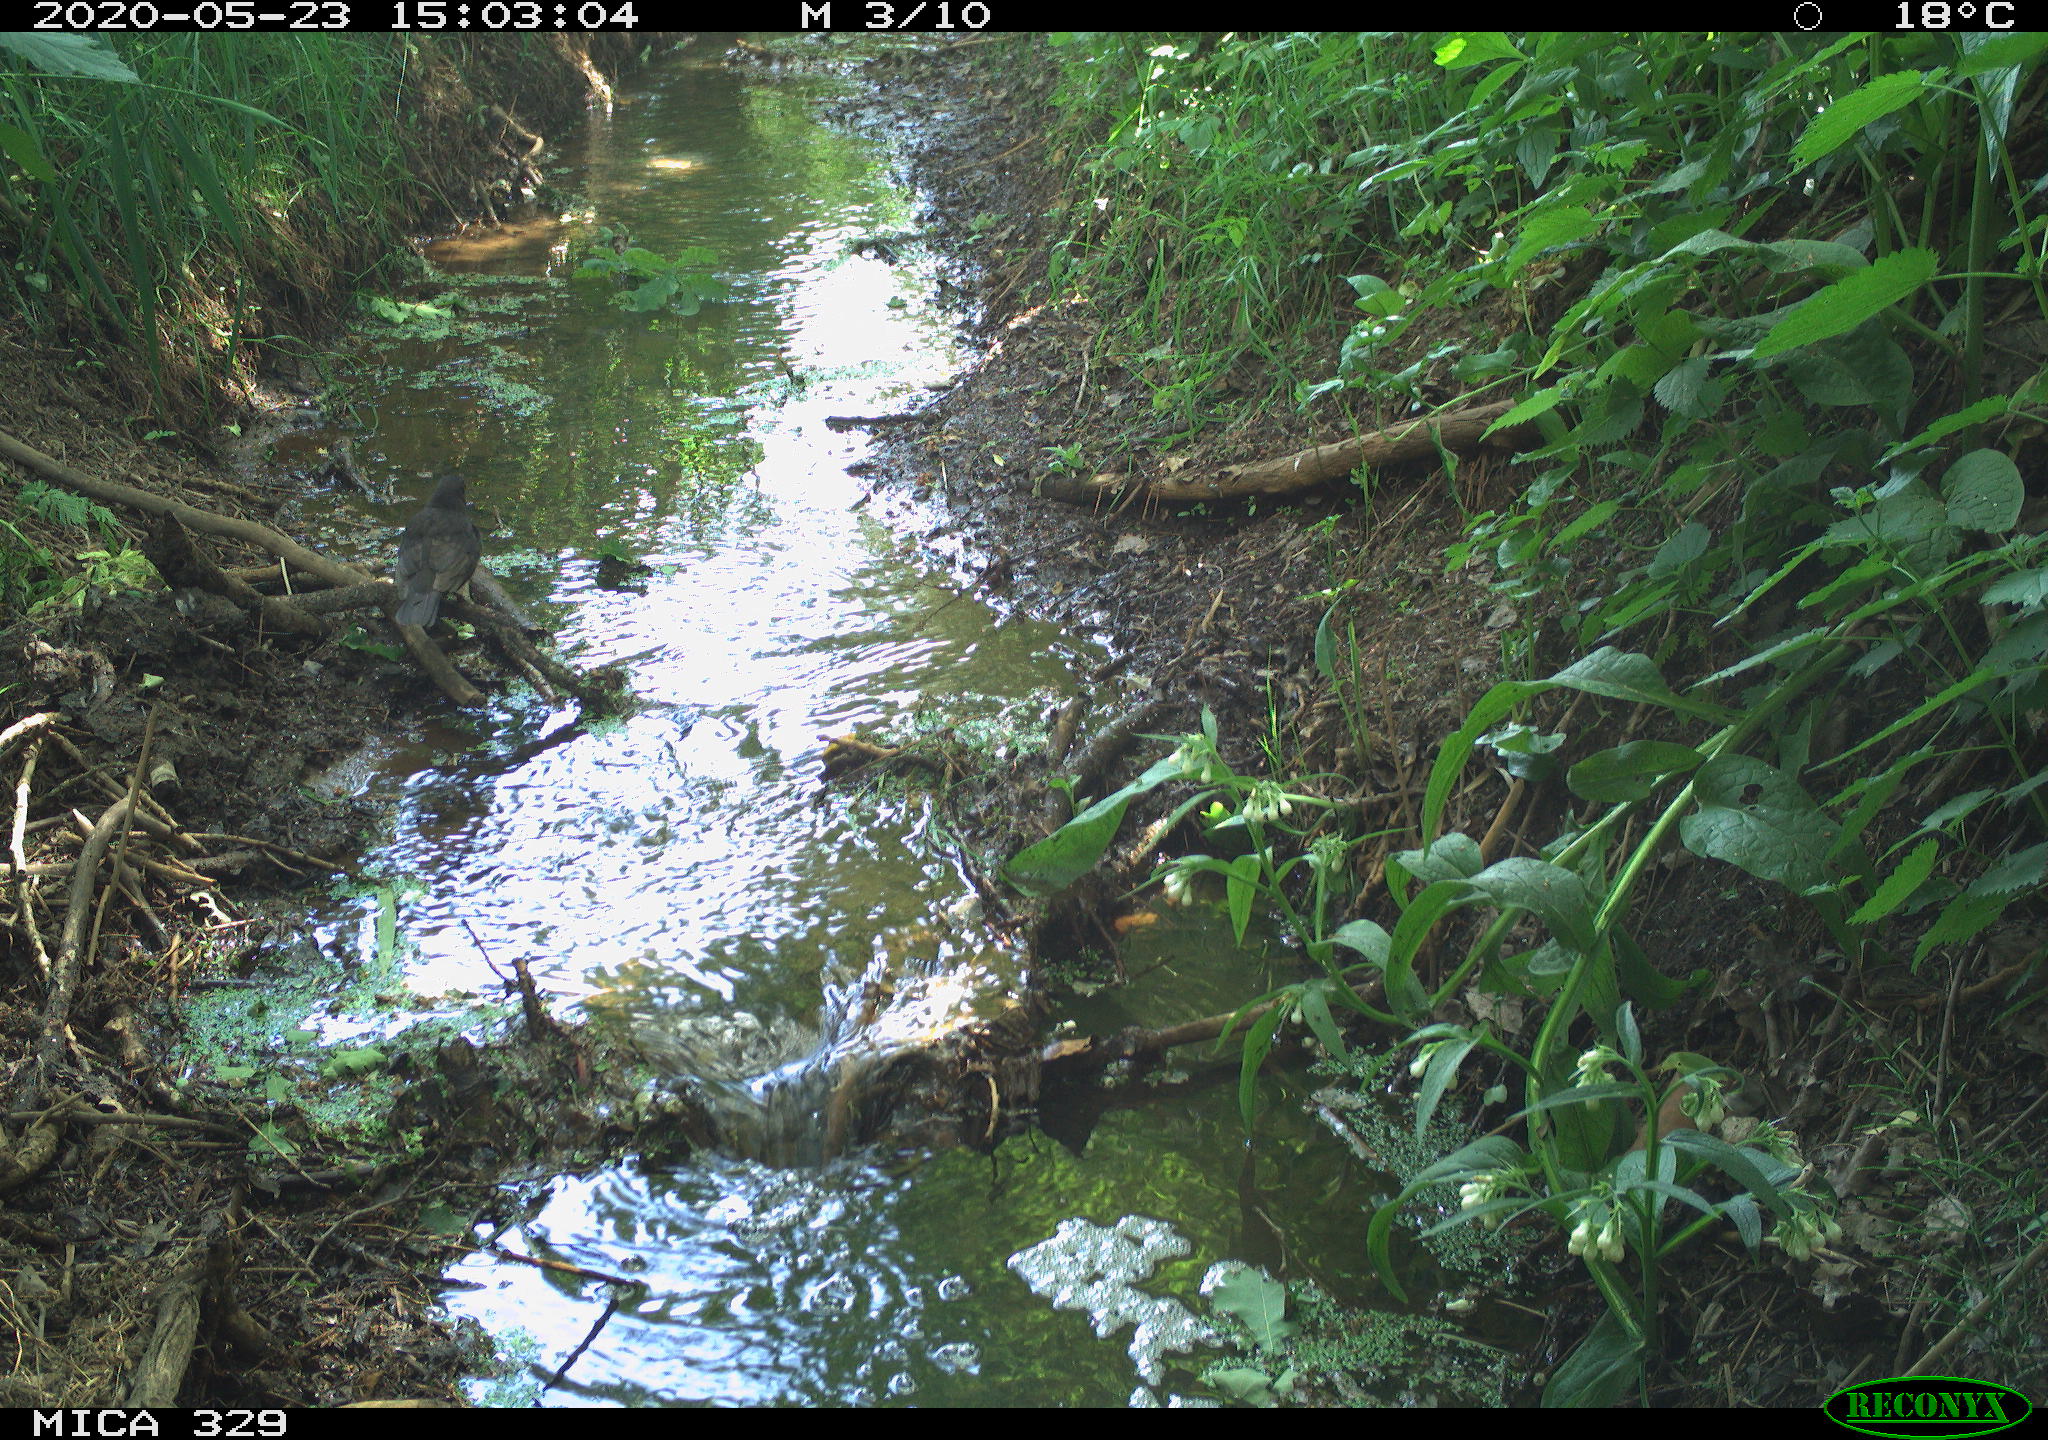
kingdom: Animalia
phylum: Chordata
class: Aves
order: Passeriformes
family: Turdidae
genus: Turdus
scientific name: Turdus merula
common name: Common blackbird
